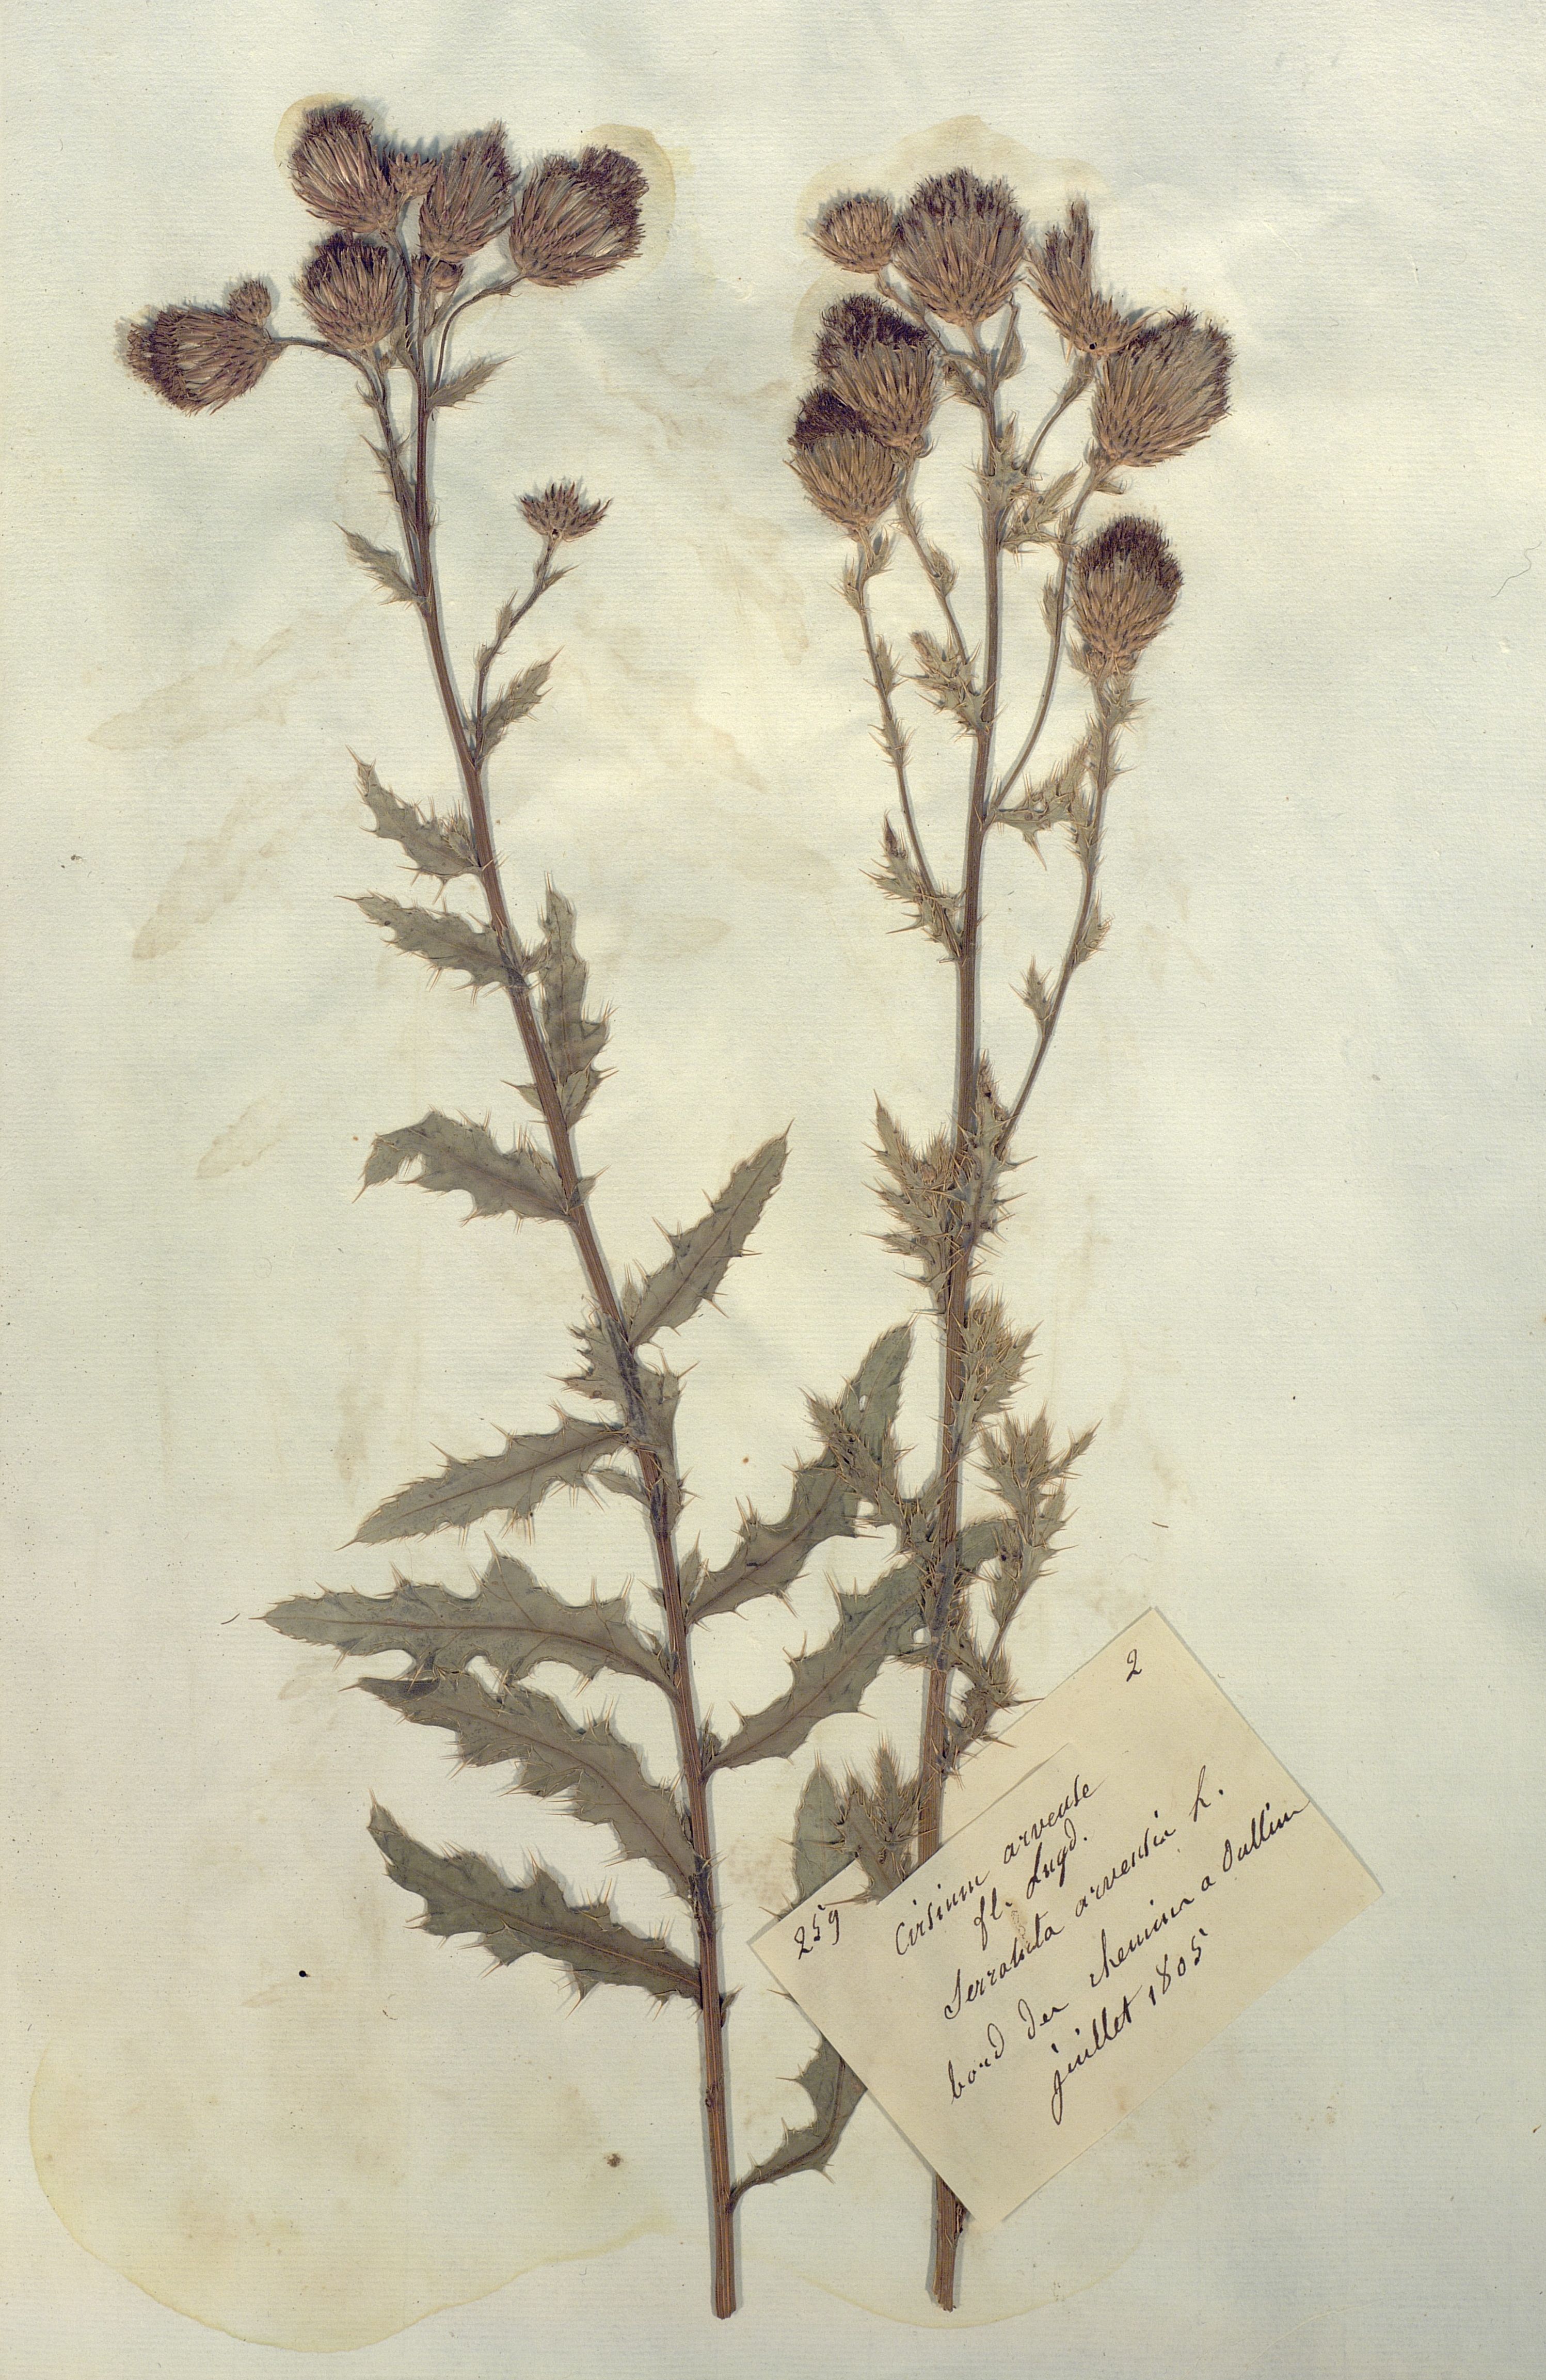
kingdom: Plantae
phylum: Tracheophyta
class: Magnoliopsida
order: Asterales
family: Asteraceae
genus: Cirsium
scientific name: Cirsium arvense
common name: Creeping thistle
